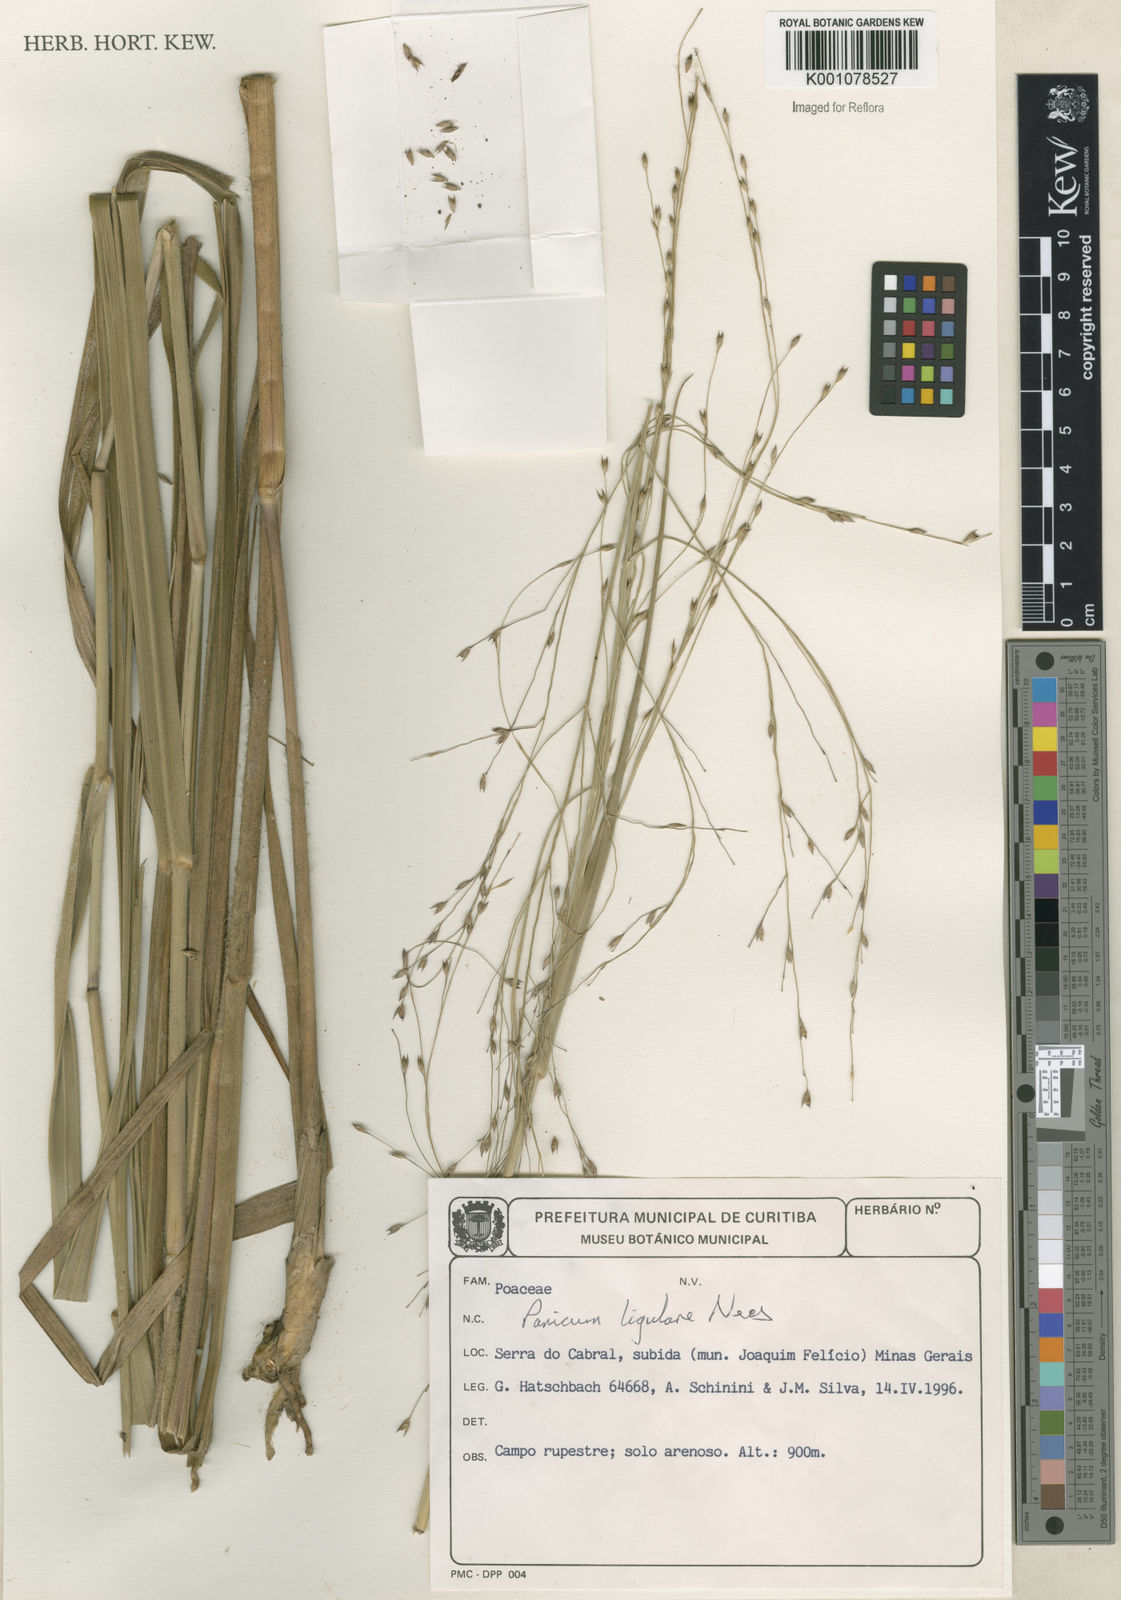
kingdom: Plantae
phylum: Tracheophyta
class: Liliopsida
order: Poales
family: Poaceae
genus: Panicum
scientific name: Panicum ligulare
